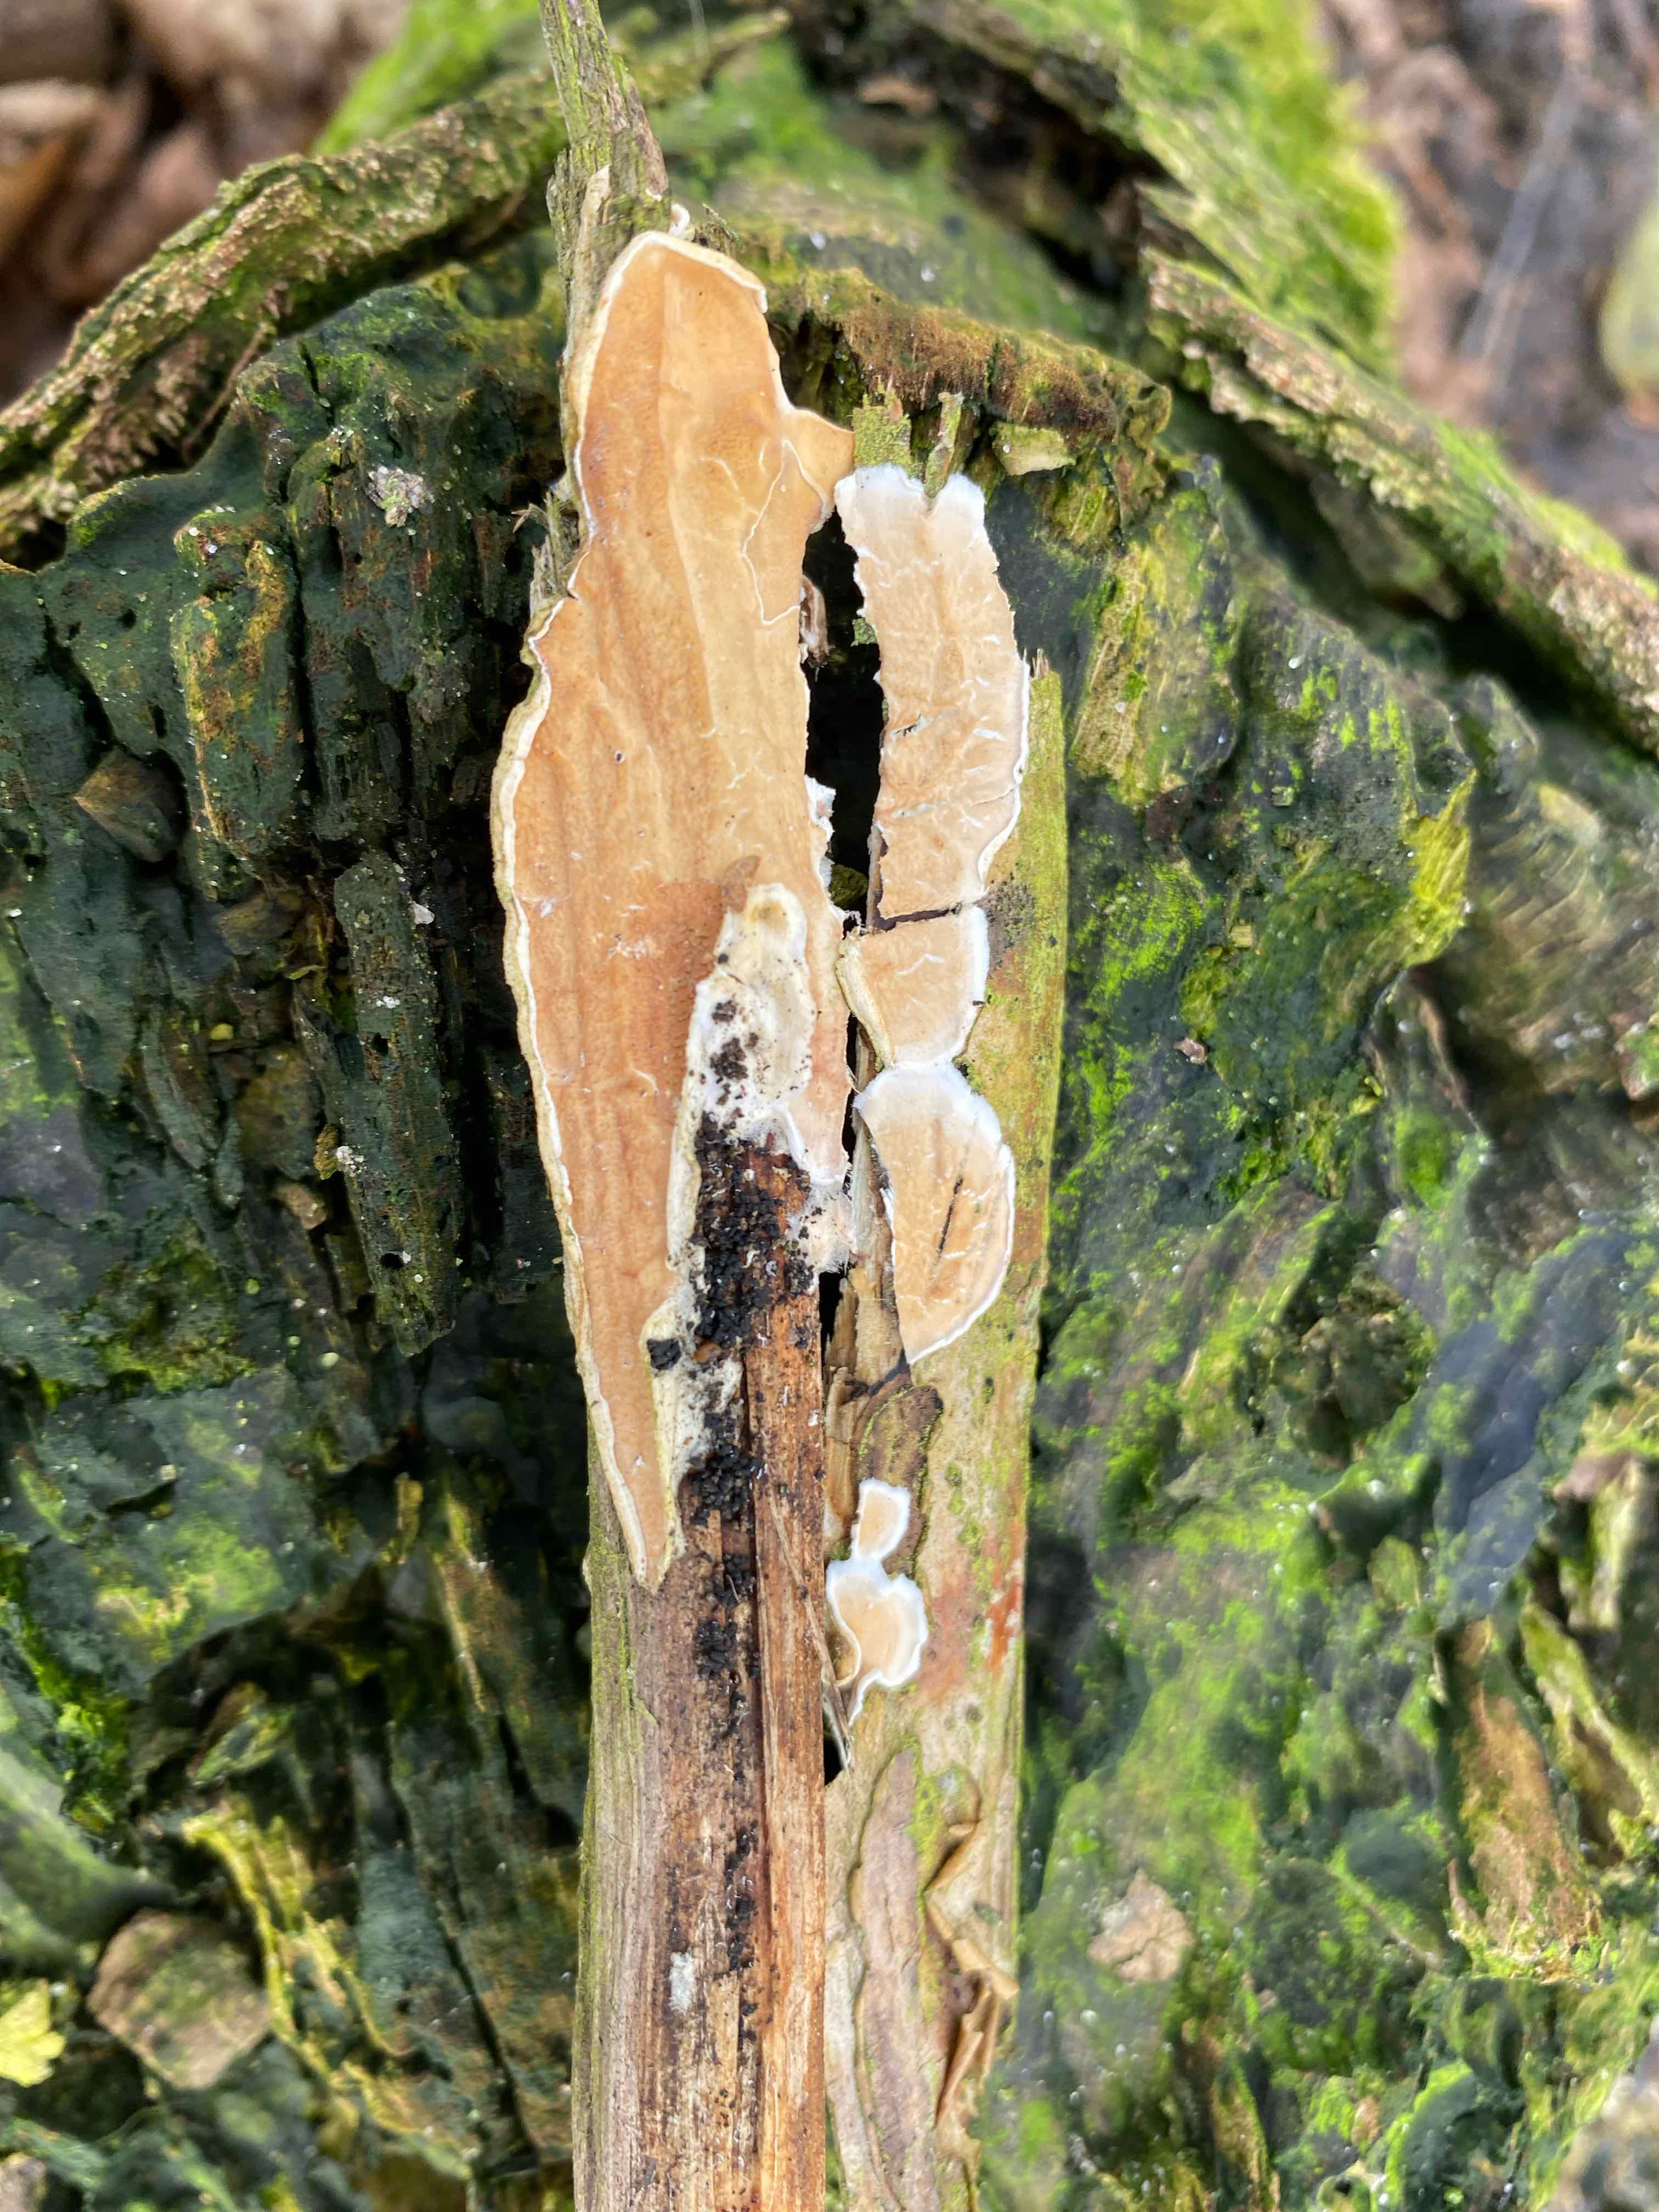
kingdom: Fungi
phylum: Basidiomycota
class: Agaricomycetes
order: Polyporales
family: Irpicaceae
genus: Byssomerulius
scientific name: Byssomerulius corium
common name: læder-åresvamp
